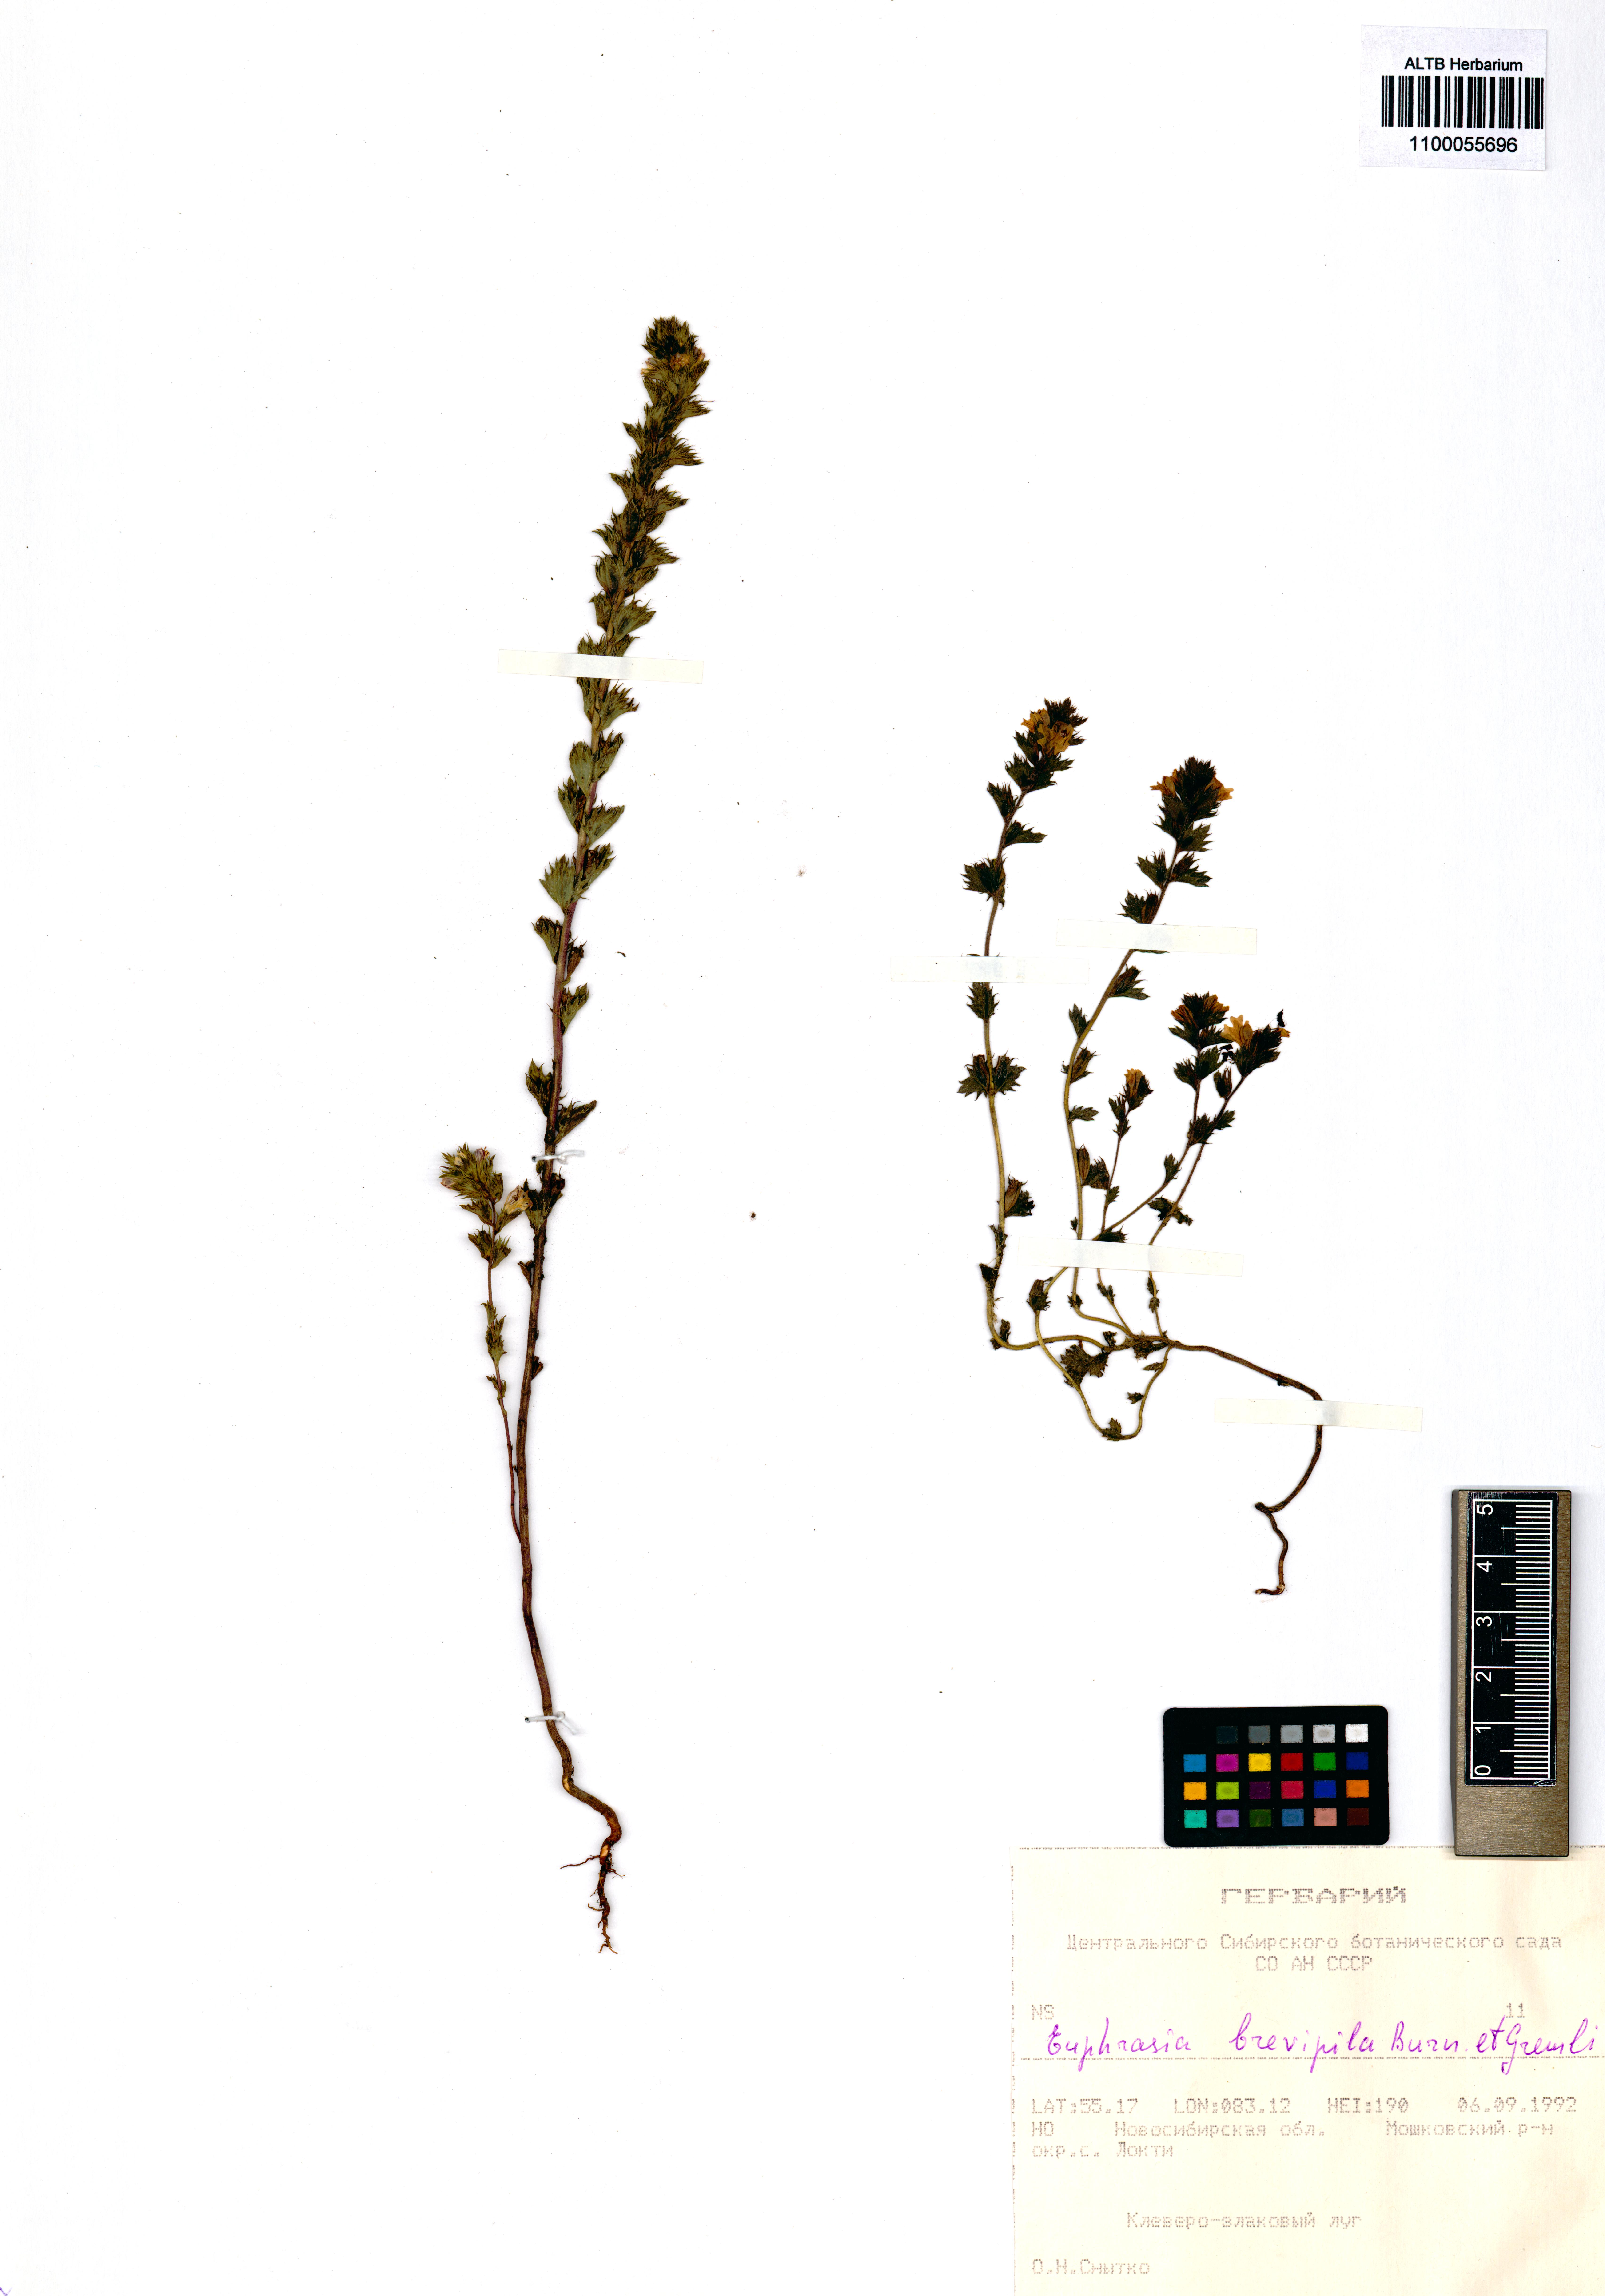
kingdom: Plantae
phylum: Tracheophyta
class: Magnoliopsida
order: Lamiales
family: Orobanchaceae
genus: Euphrasia
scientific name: Euphrasia vernalis
